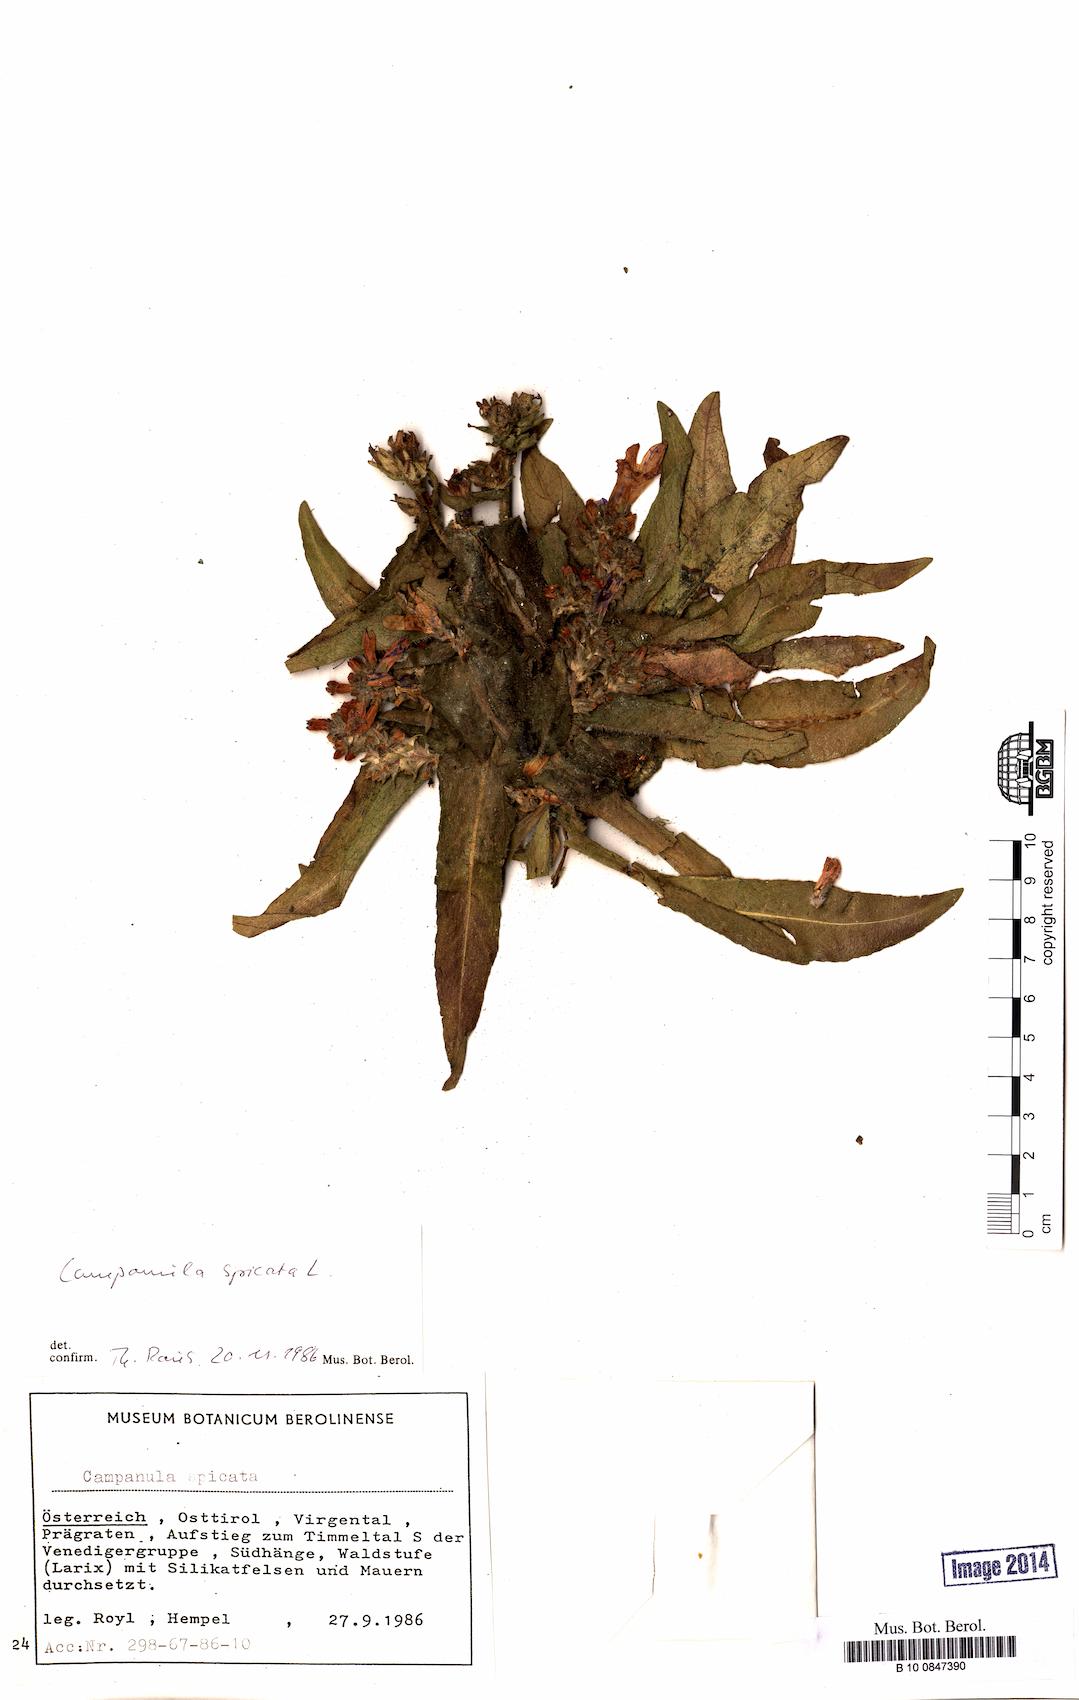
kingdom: Plantae
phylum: Tracheophyta
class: Magnoliopsida
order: Asterales
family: Campanulaceae
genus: Campanula
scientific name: Campanula spicata
